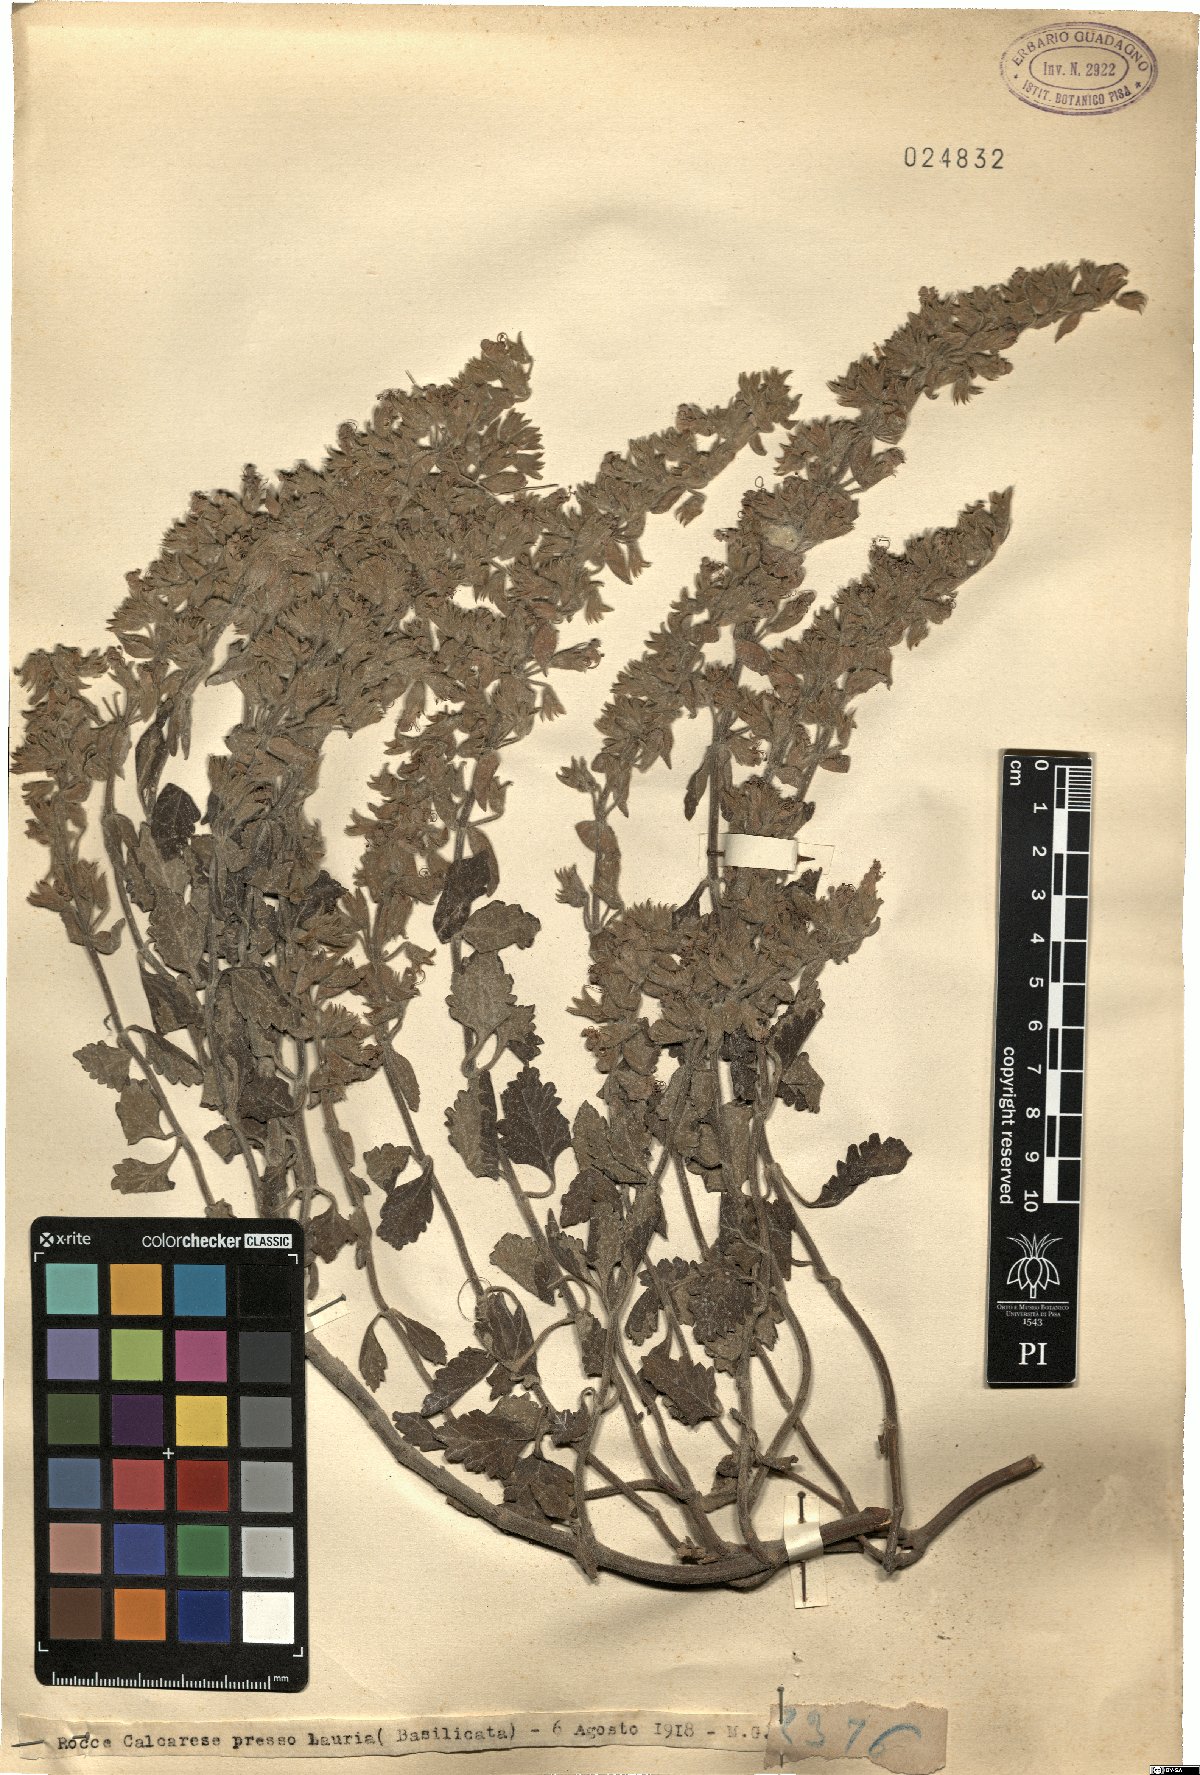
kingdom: Plantae
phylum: Tracheophyta
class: Magnoliopsida
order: Lamiales
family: Lamiaceae
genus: Teucrium
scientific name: Teucrium
